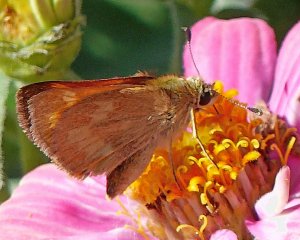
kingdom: Animalia
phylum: Arthropoda
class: Insecta
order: Lepidoptera
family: Hesperiidae
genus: Ochlodes
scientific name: Ochlodes sylvanoides
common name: Woodland Skipper
